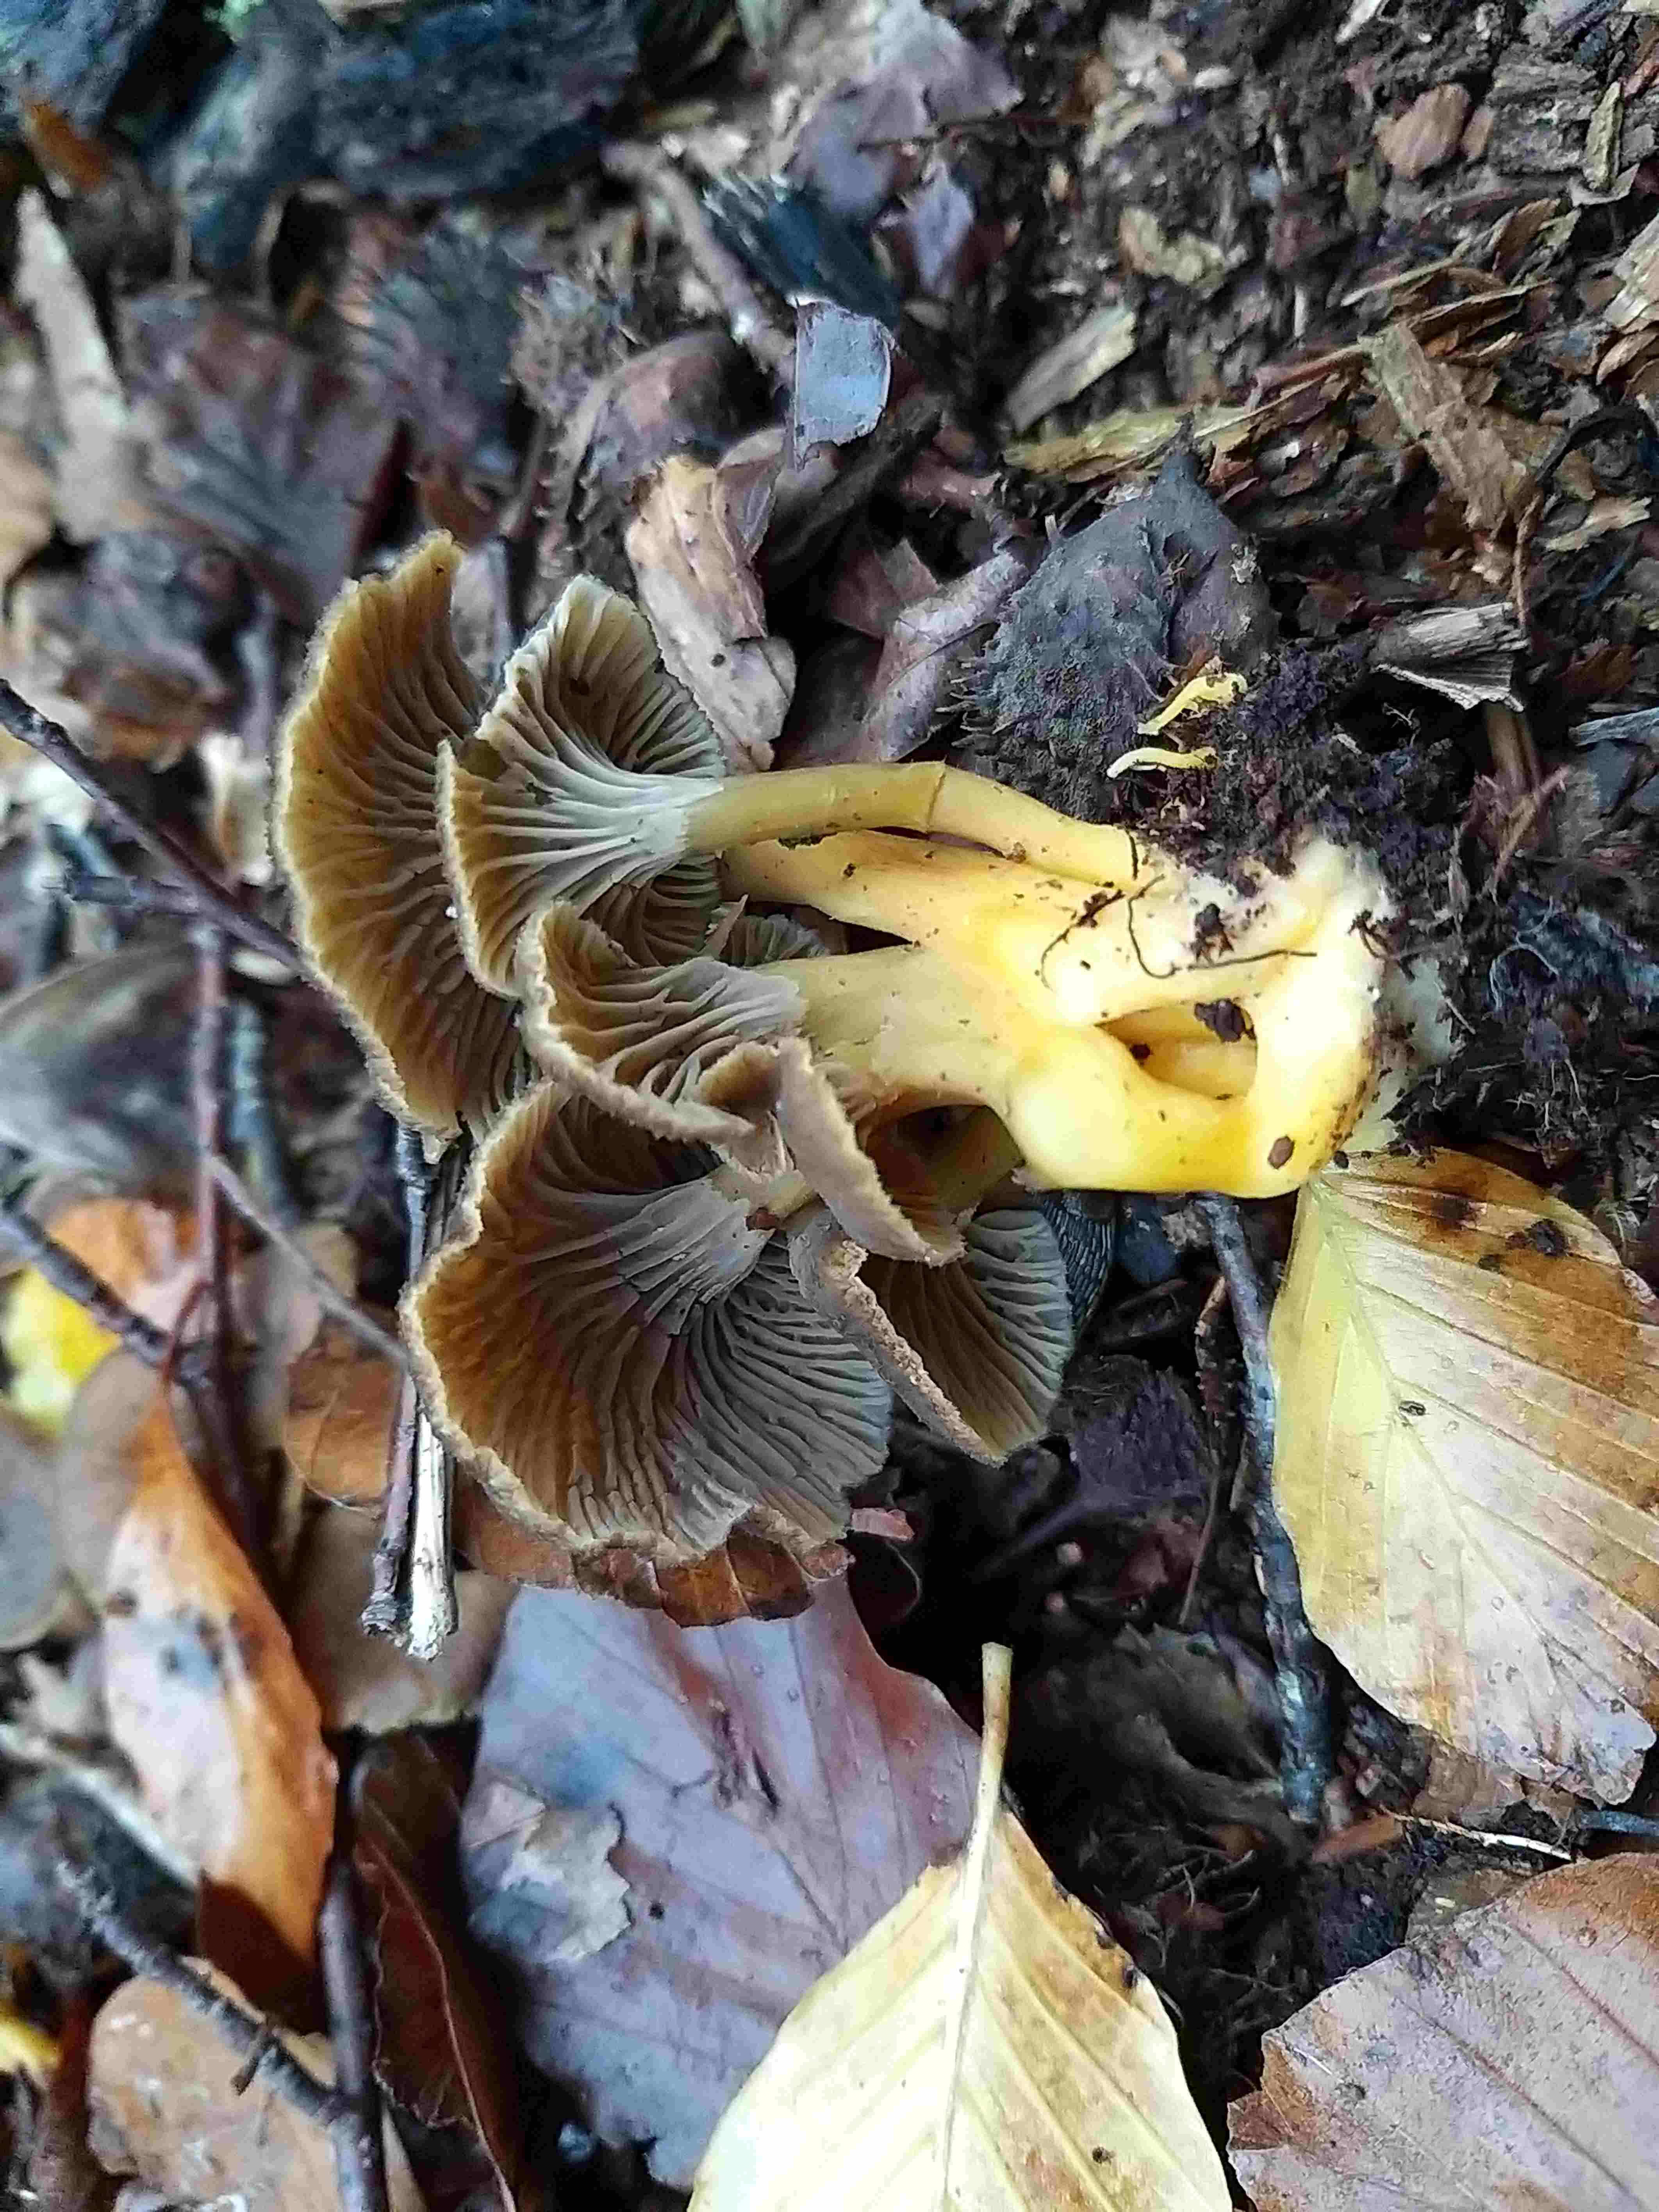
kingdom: Fungi
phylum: Basidiomycota
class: Agaricomycetes
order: Cantharellales
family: Hydnaceae
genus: Craterellus
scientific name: Craterellus tubaeformis
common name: tragt-kantarel
